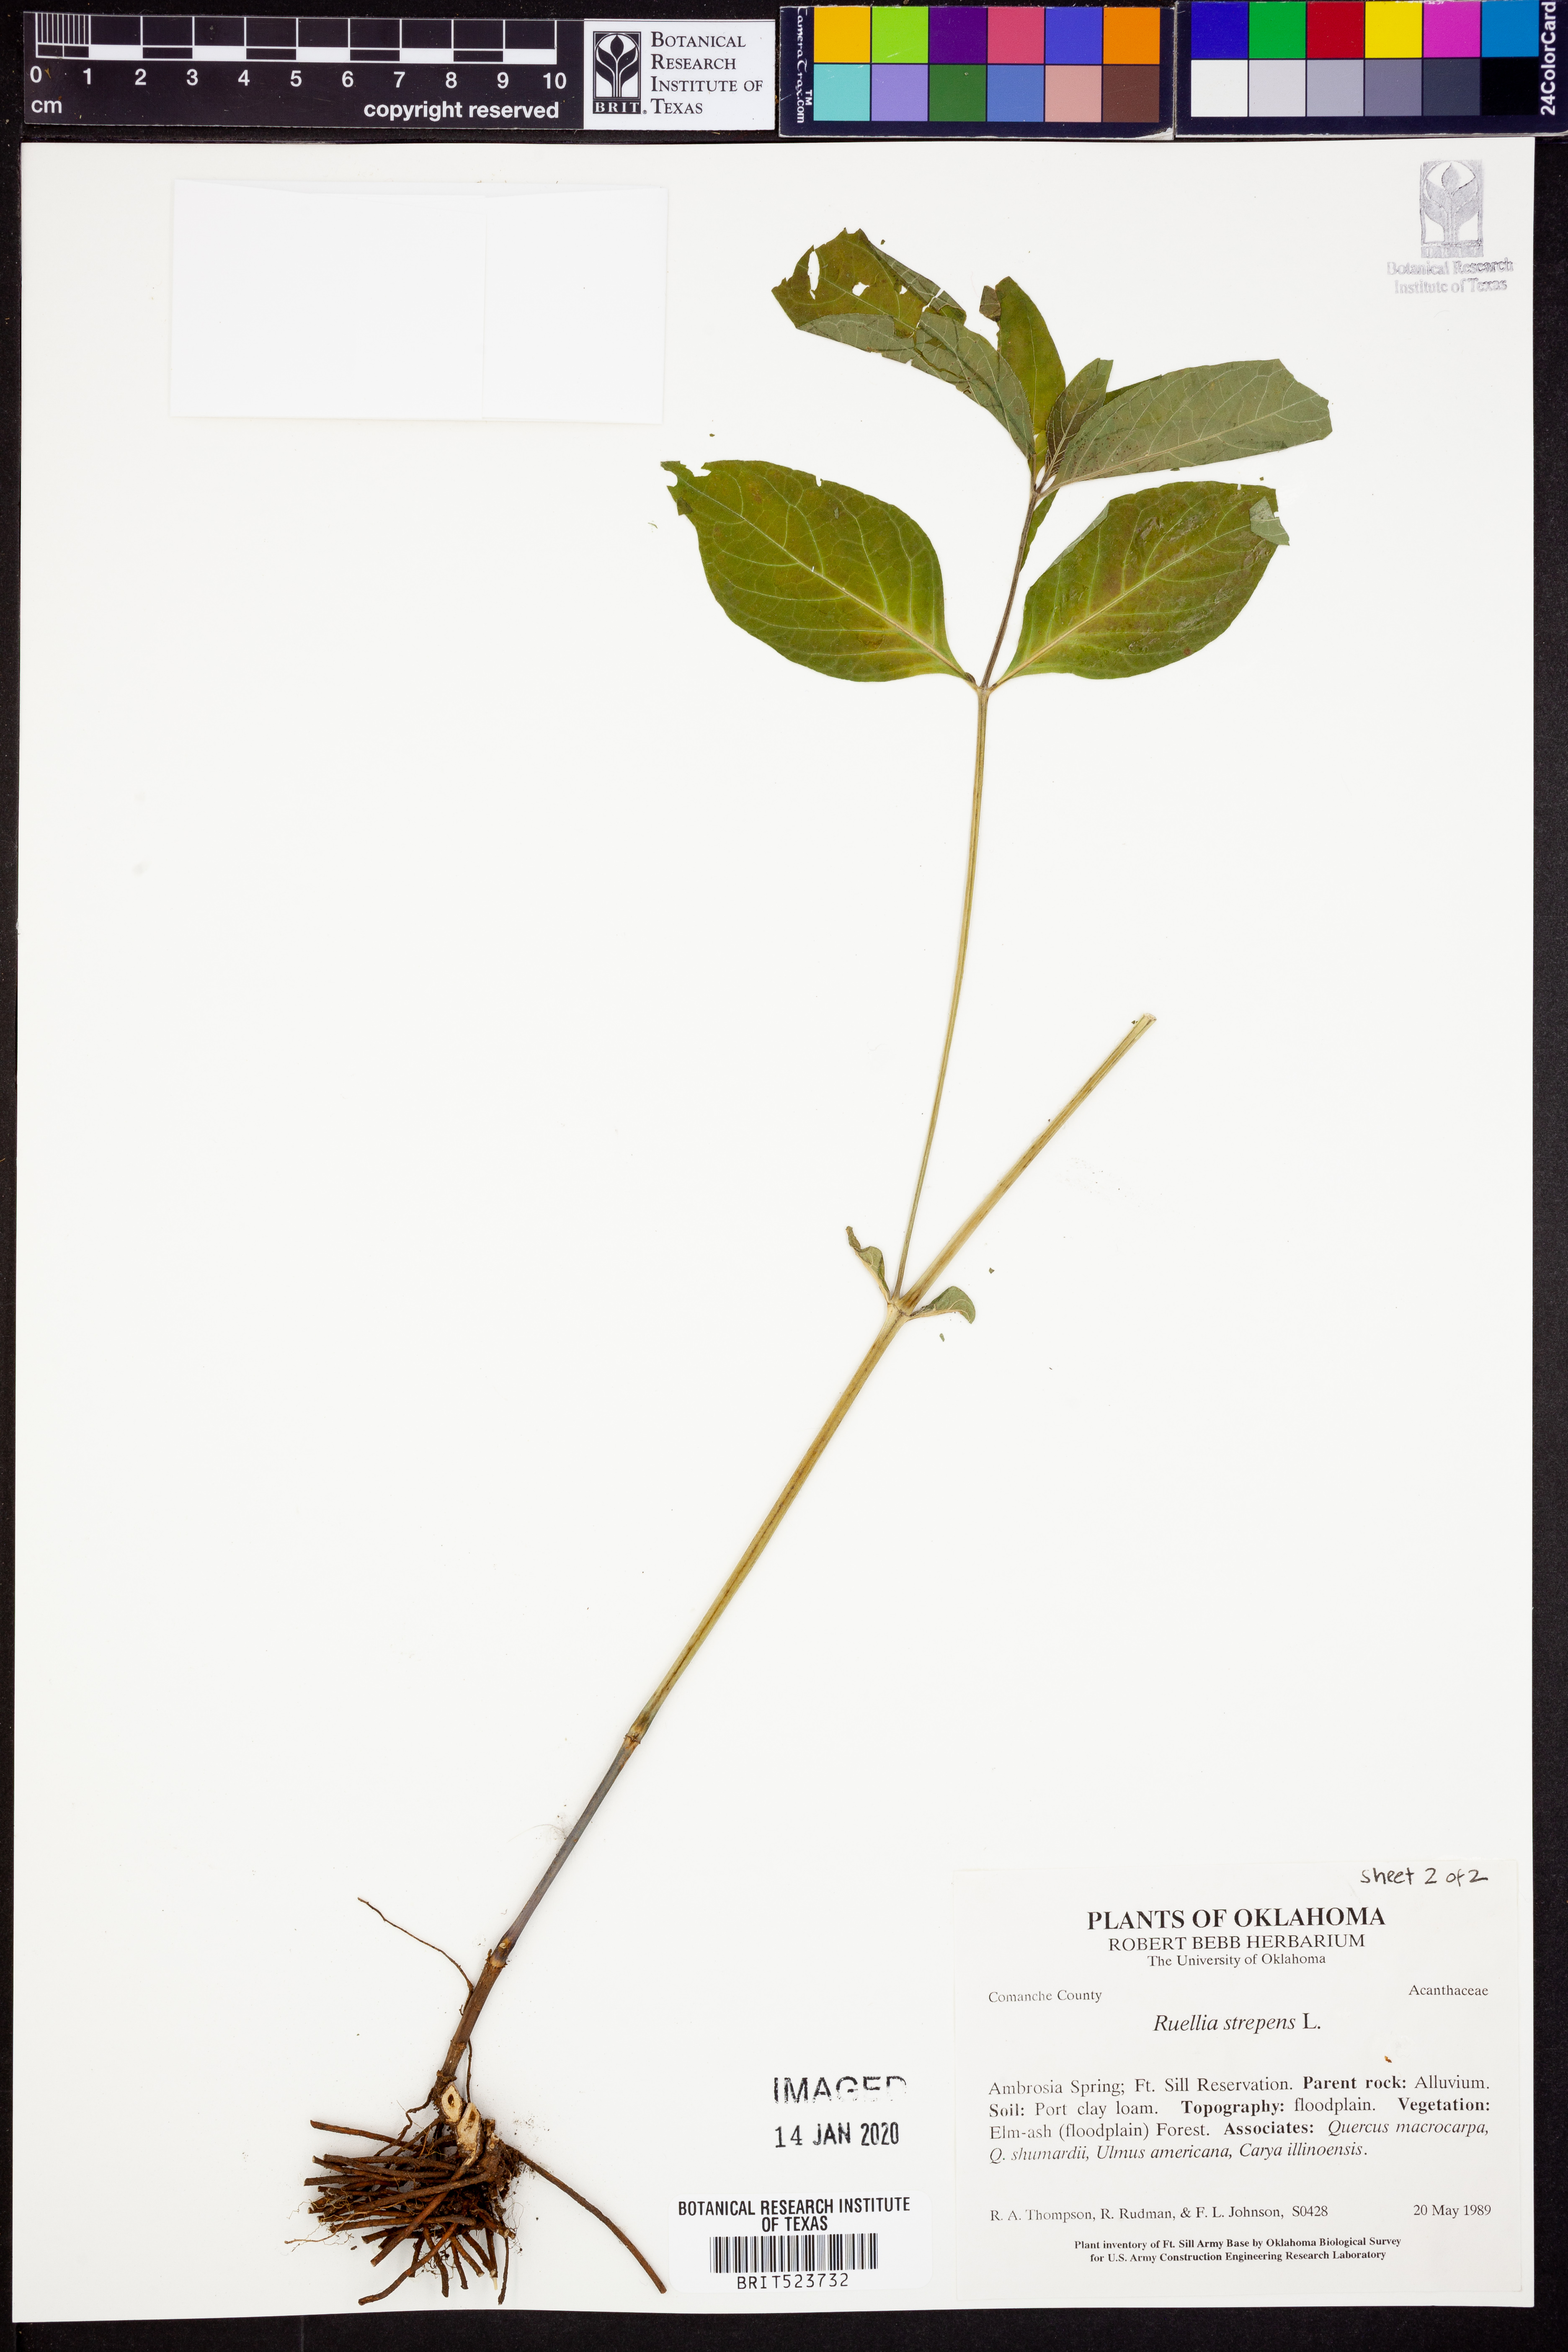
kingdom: Plantae
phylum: Tracheophyta
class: Magnoliopsida
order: Lamiales
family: Acanthaceae
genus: Ruellia
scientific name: Ruellia strepens
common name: Limestone wild petunia
